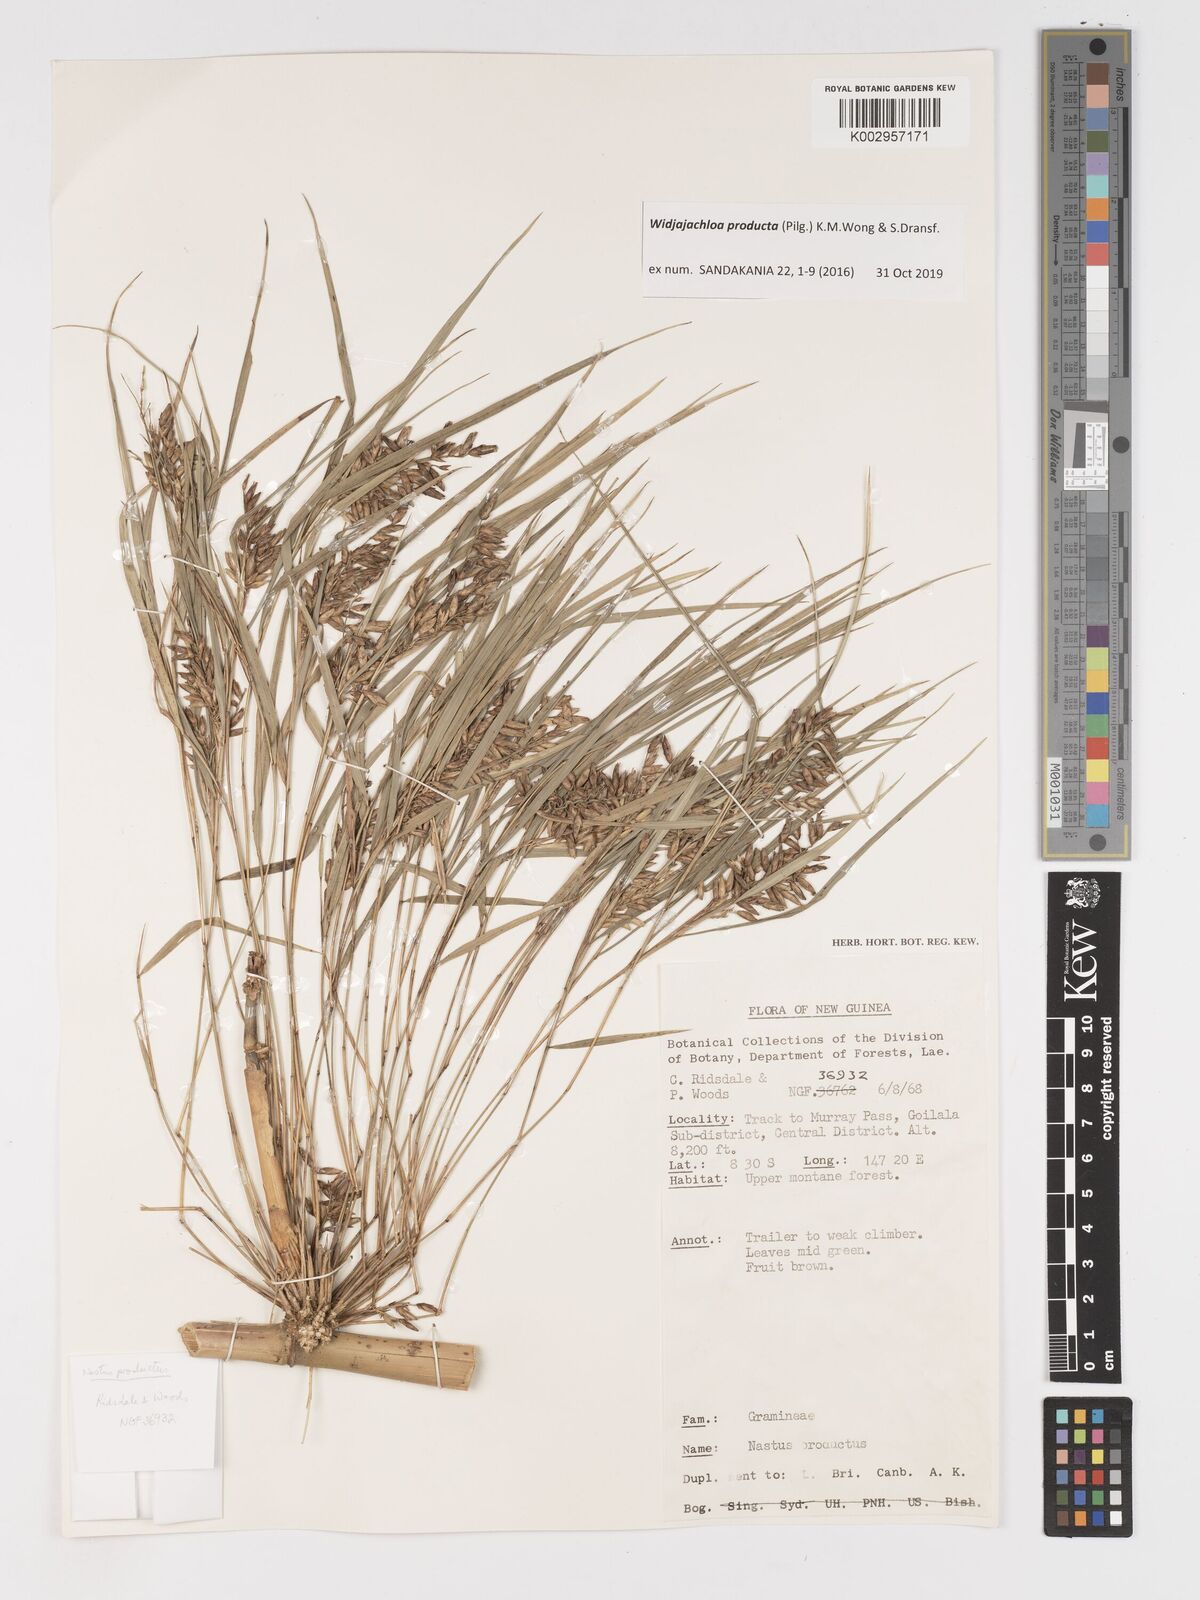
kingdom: Plantae
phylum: Tracheophyta
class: Liliopsida
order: Poales
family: Poaceae
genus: Widjajachloa
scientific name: Widjajachloa producta
